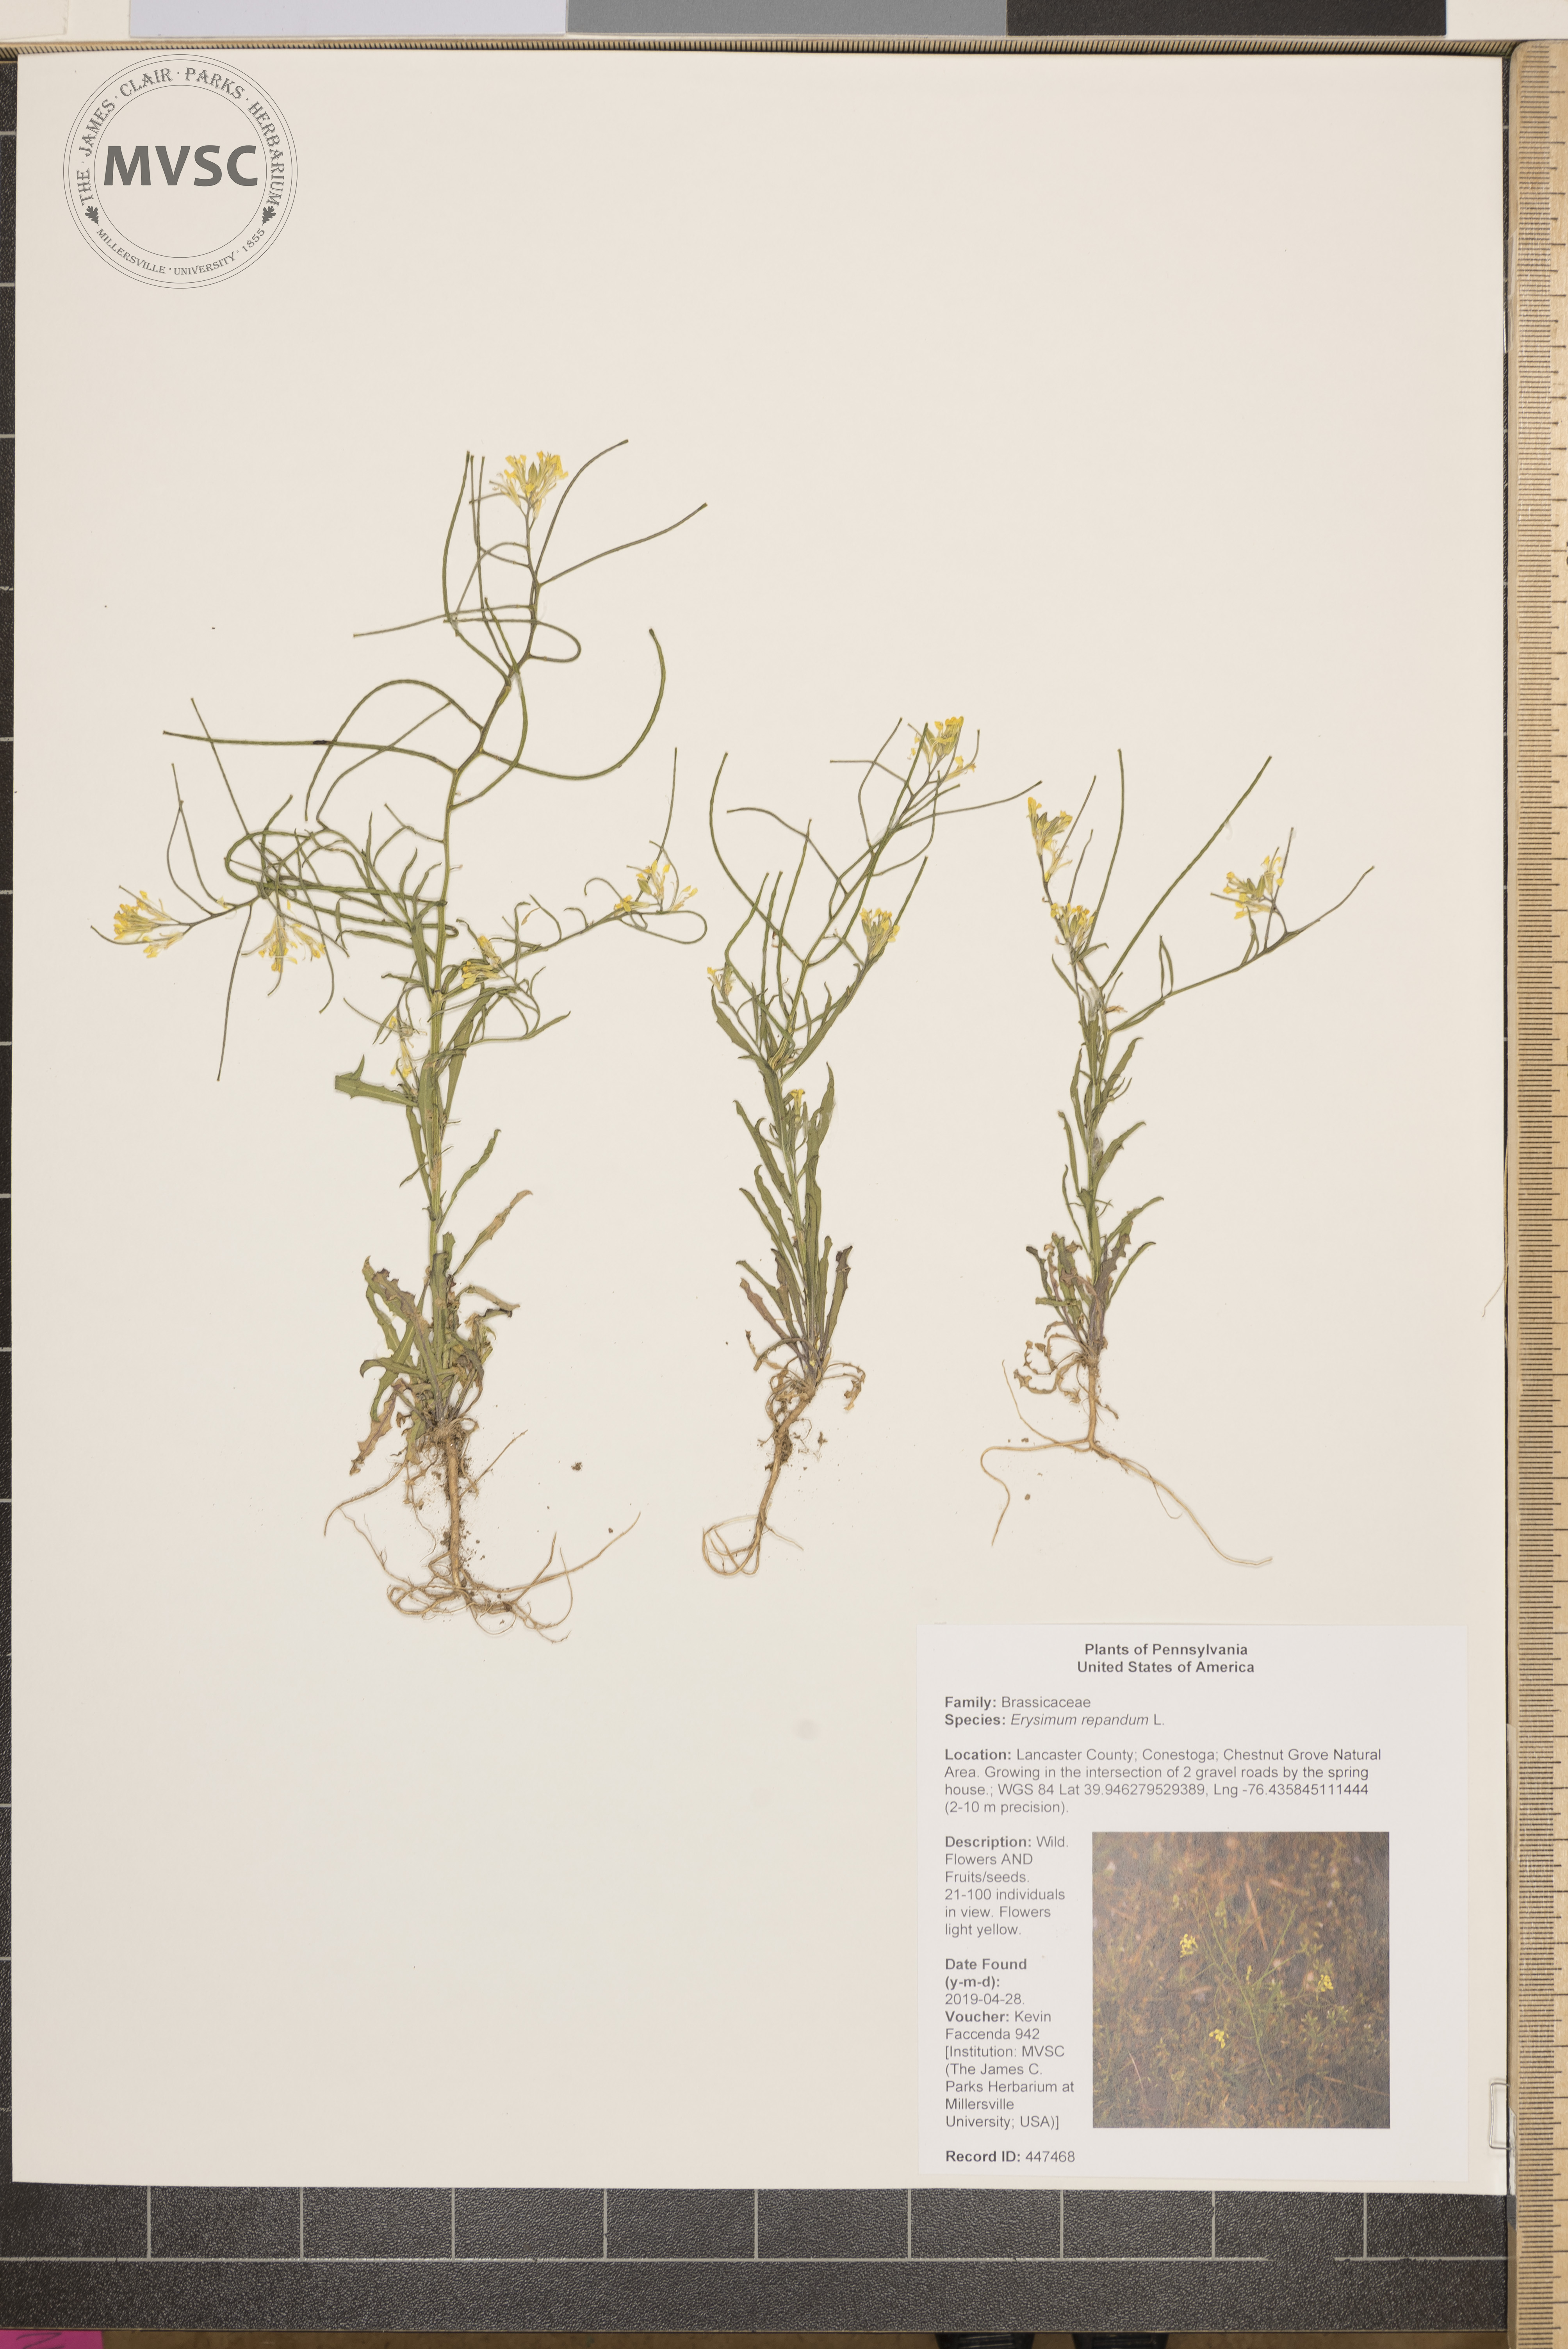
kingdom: Plantae
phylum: Tracheophyta
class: Magnoliopsida
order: Brassicales
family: Brassicaceae
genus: Erysimum
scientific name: Erysimum repandum
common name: Spreading wallflower
